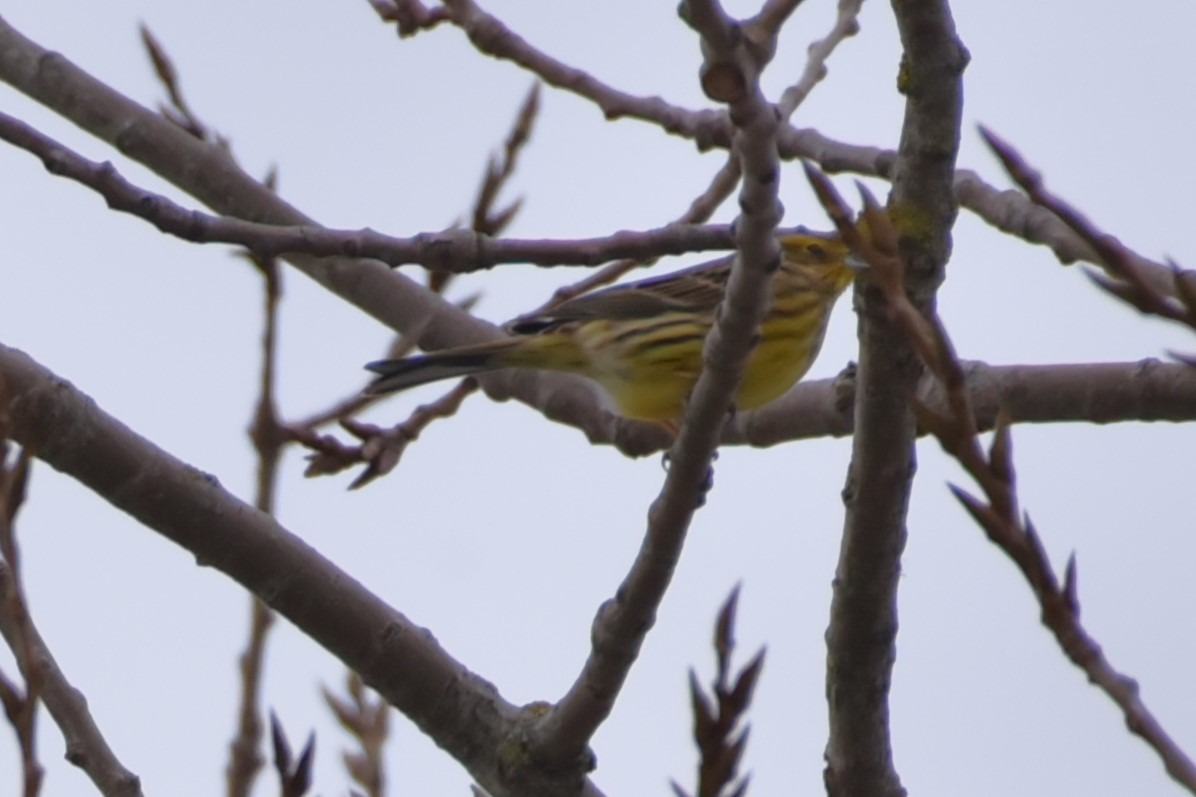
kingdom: Animalia
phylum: Chordata
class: Aves
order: Passeriformes
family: Emberizidae
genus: Emberiza
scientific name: Emberiza citrinella
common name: Gulspurv
